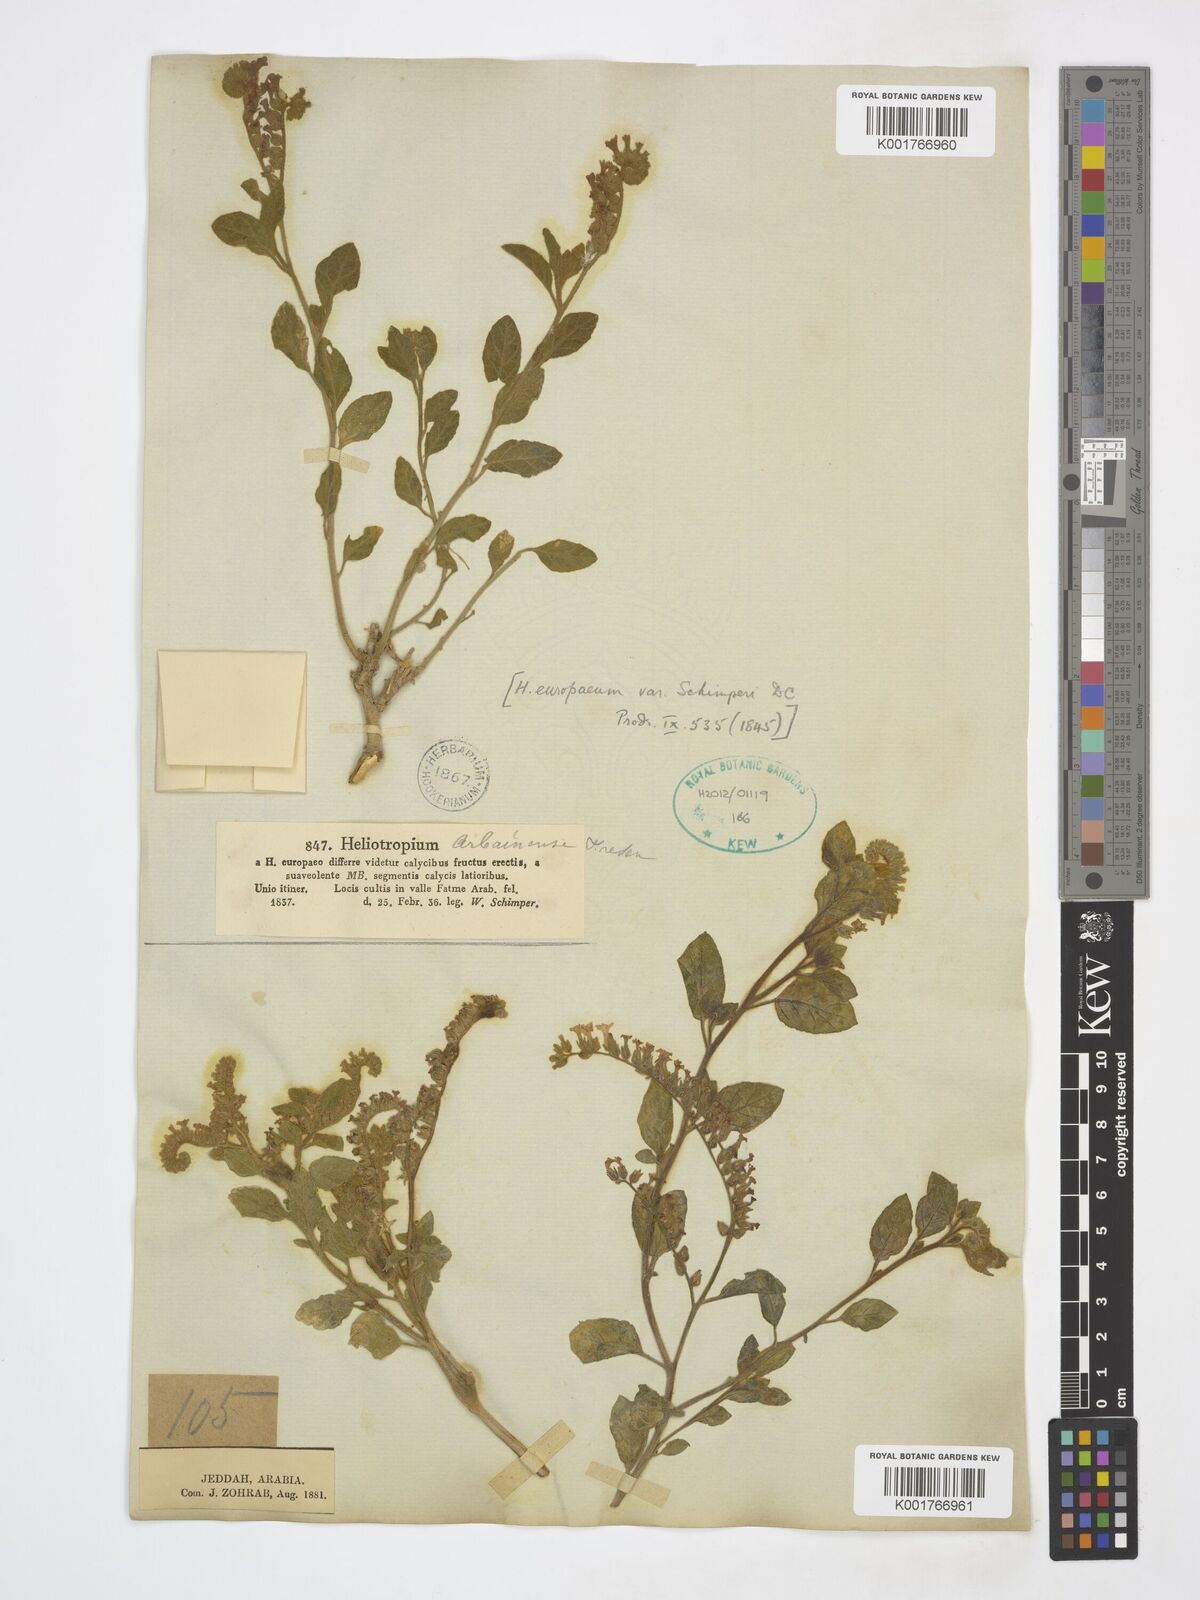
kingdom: Plantae
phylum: Tracheophyta
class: Magnoliopsida
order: Boraginales
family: Heliotropiaceae
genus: Heliotropium
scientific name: Heliotropium europaeum
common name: European heliotrope
